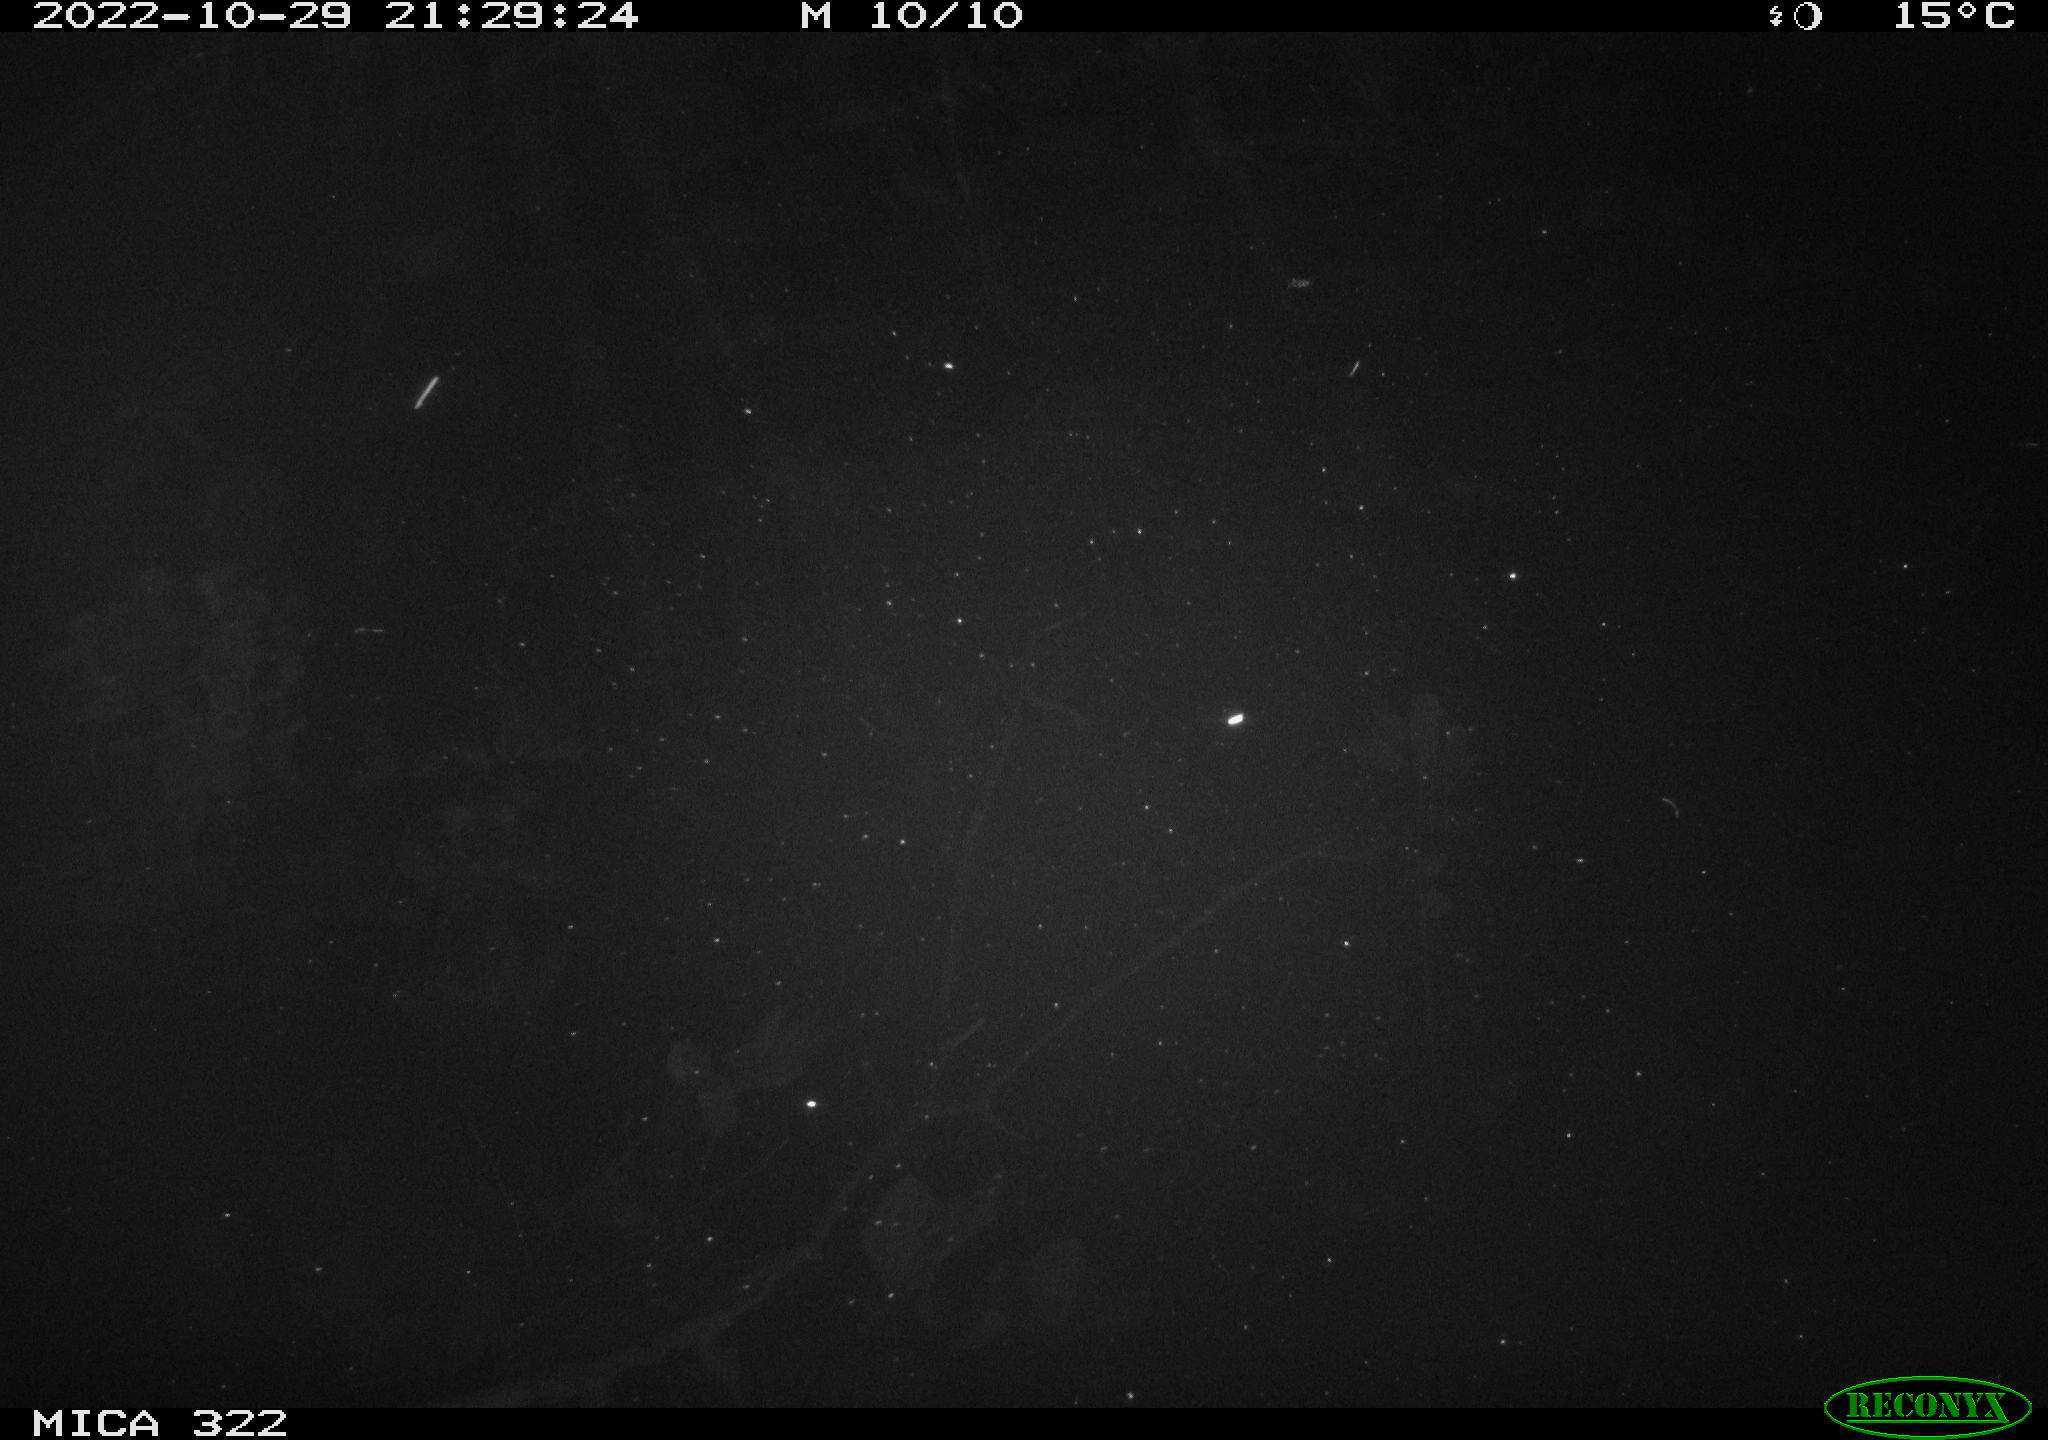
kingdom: Animalia
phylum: Chordata
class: Mammalia
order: Rodentia
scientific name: Rodentia
